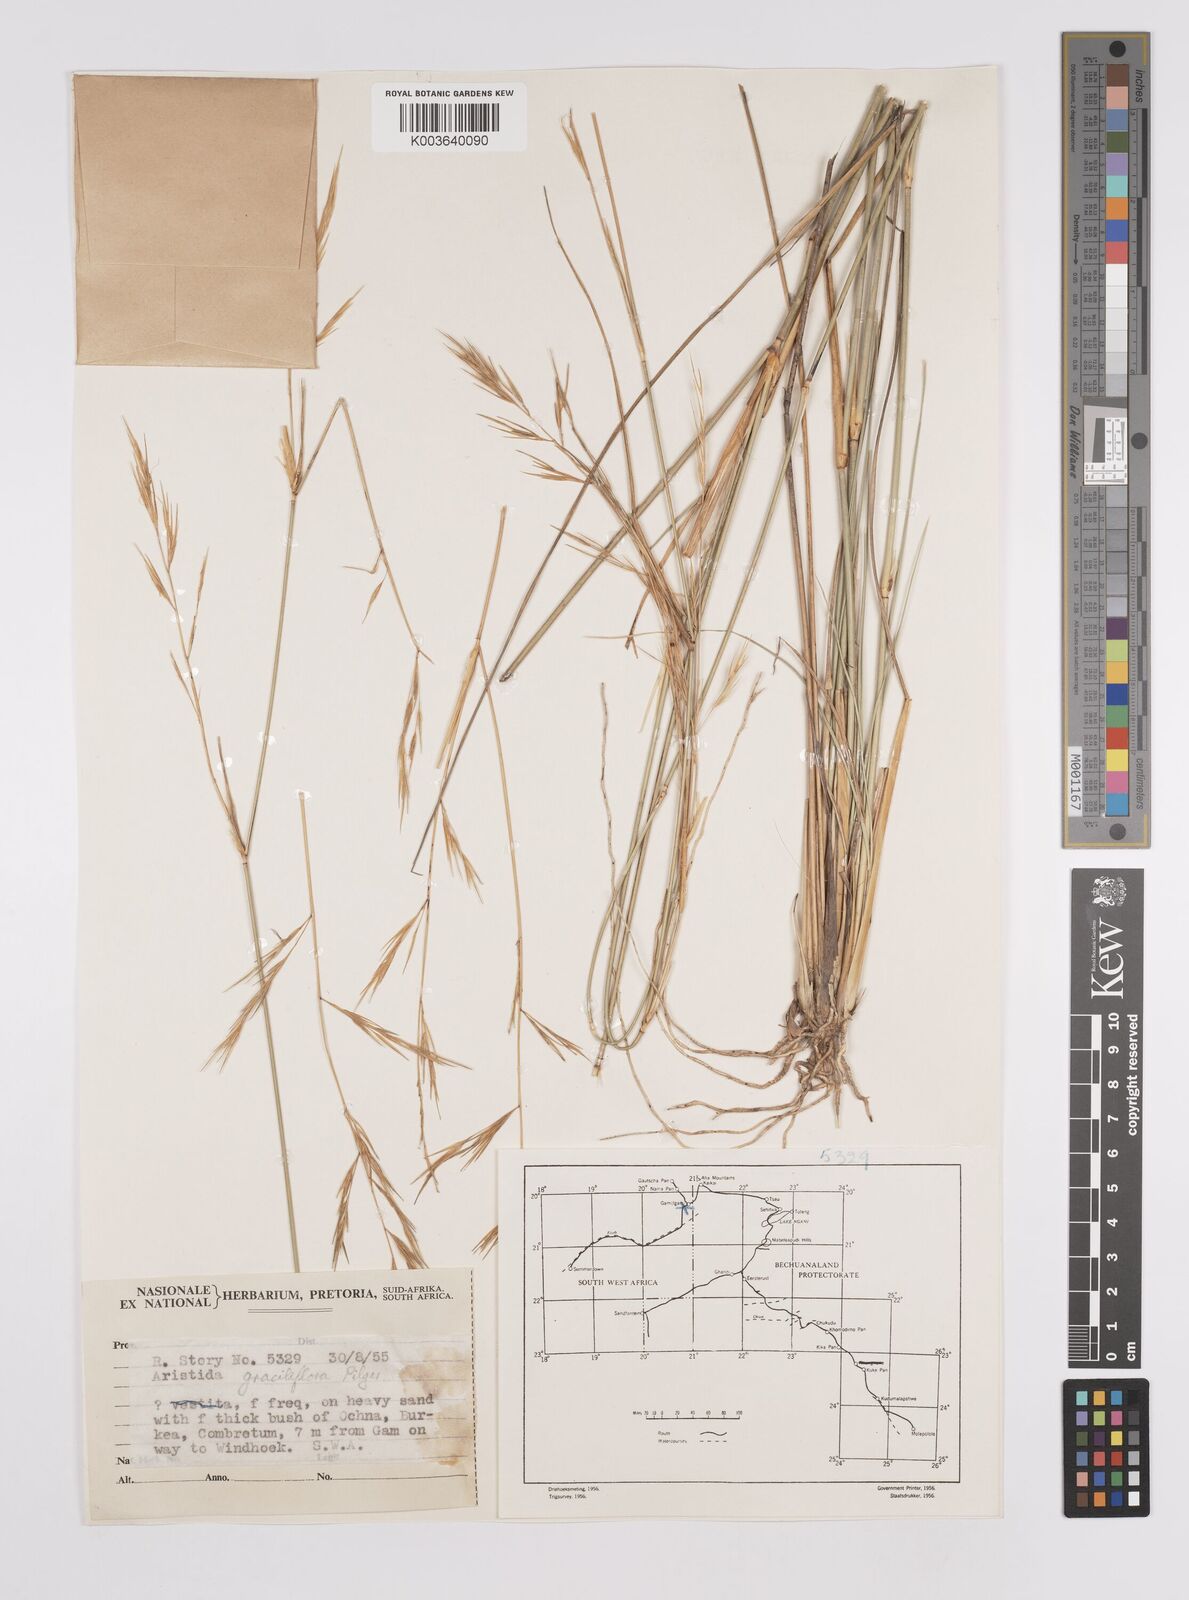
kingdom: Plantae
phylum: Tracheophyta
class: Liliopsida
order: Poales
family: Poaceae
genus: Aristida
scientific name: Aristida stipitata
